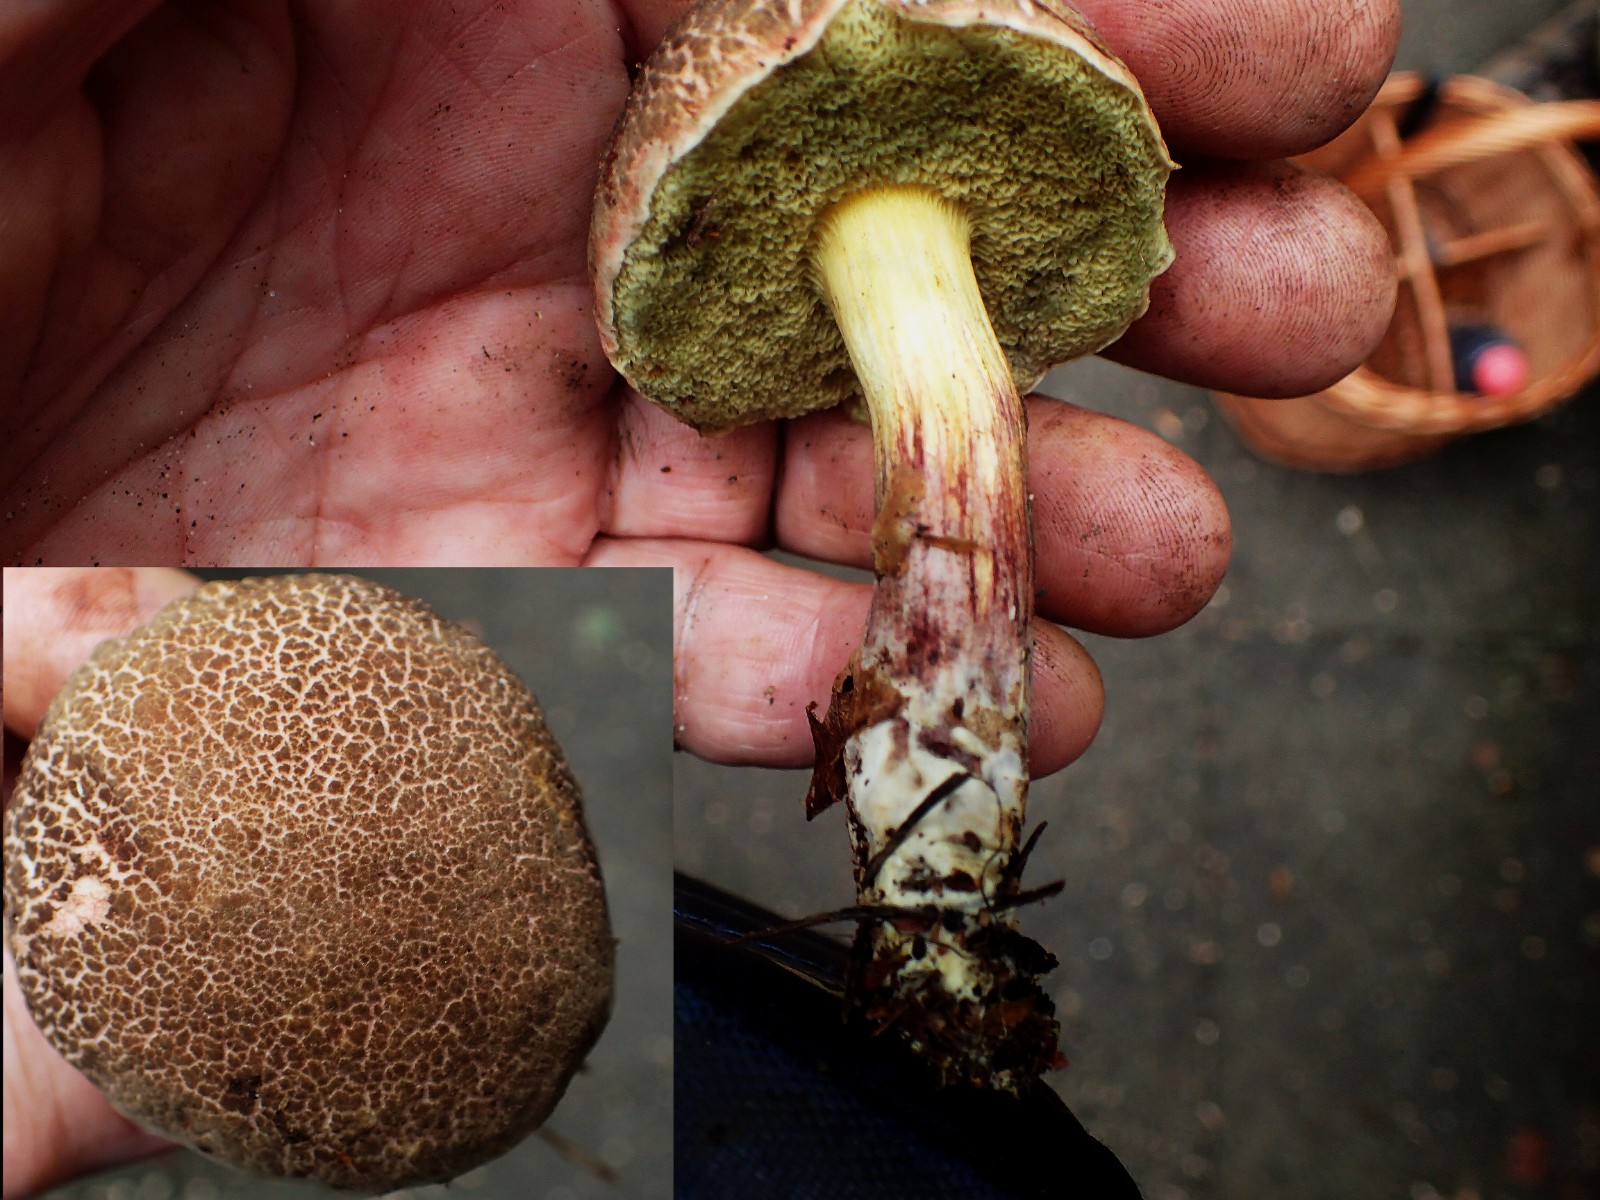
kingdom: Fungi
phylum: Basidiomycota
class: Agaricomycetes
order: Boletales
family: Boletaceae
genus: Xerocomellus
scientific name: Xerocomellus
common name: dværgrørhat
